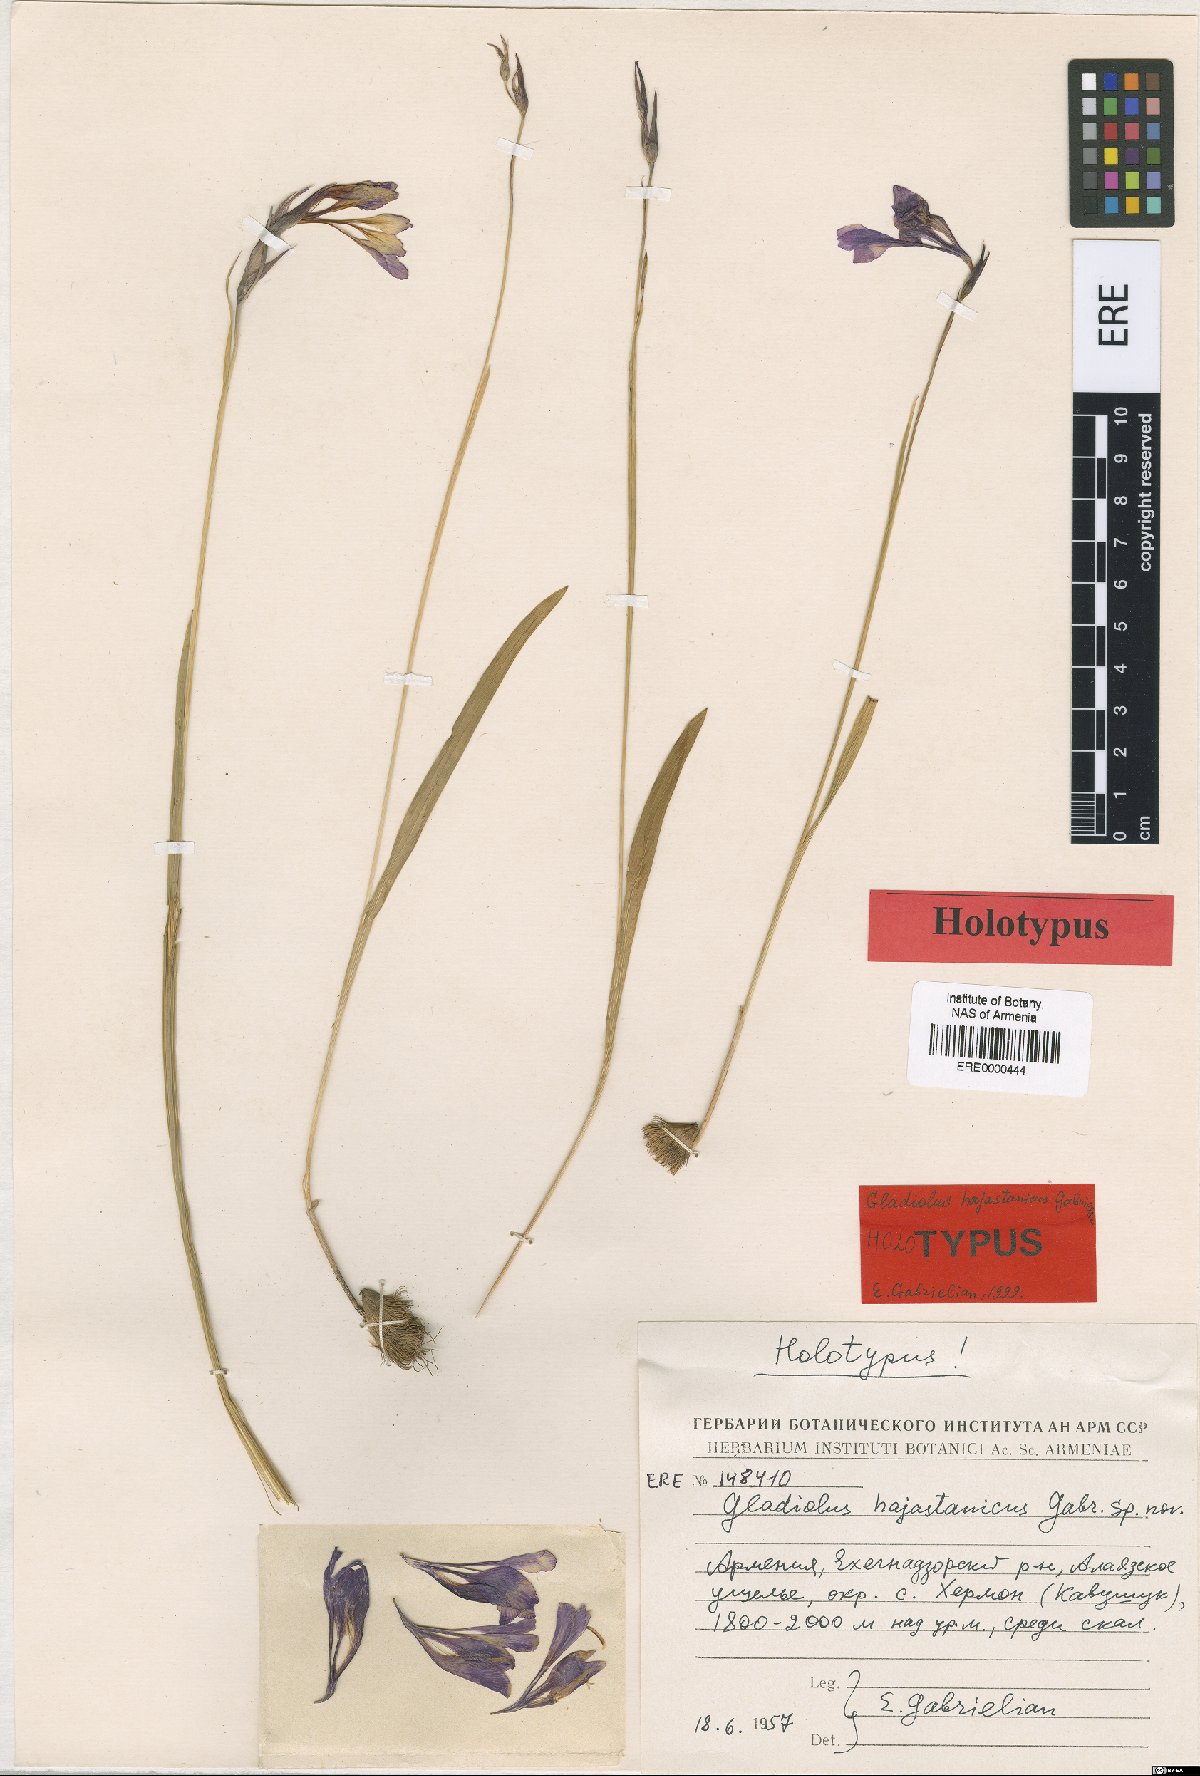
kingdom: Plantae
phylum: Tracheophyta
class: Liliopsida
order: Asparagales
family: Iridaceae
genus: Gladiolus
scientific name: Gladiolus hajastanicus
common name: Armenian sword-lily
